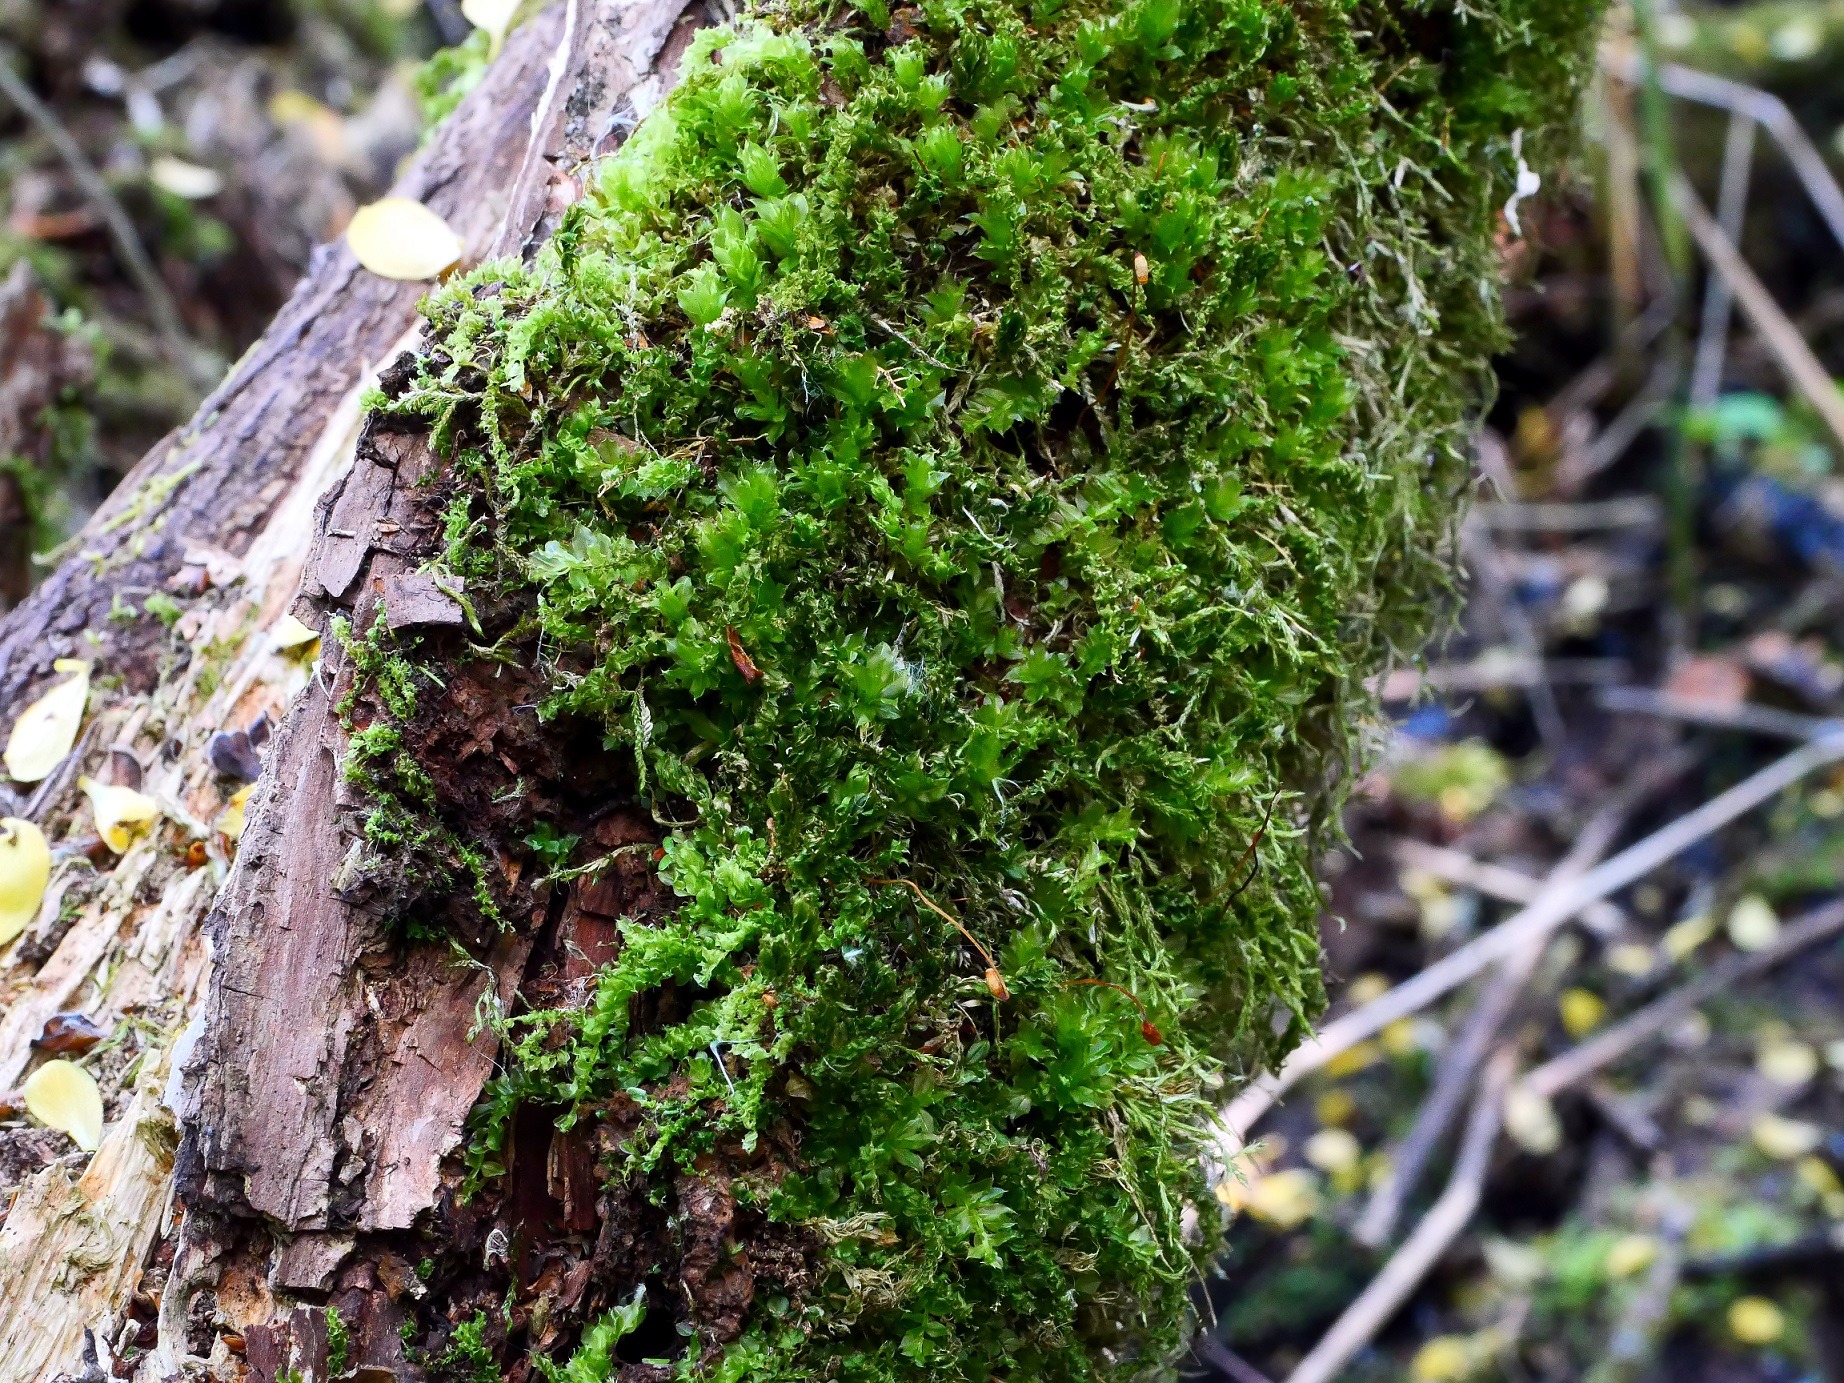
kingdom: Plantae
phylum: Bryophyta
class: Bryopsida
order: Bryales
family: Mniaceae
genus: Plagiomnium
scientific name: Plagiomnium cuspidatum
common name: Gærde-krybstjerne
